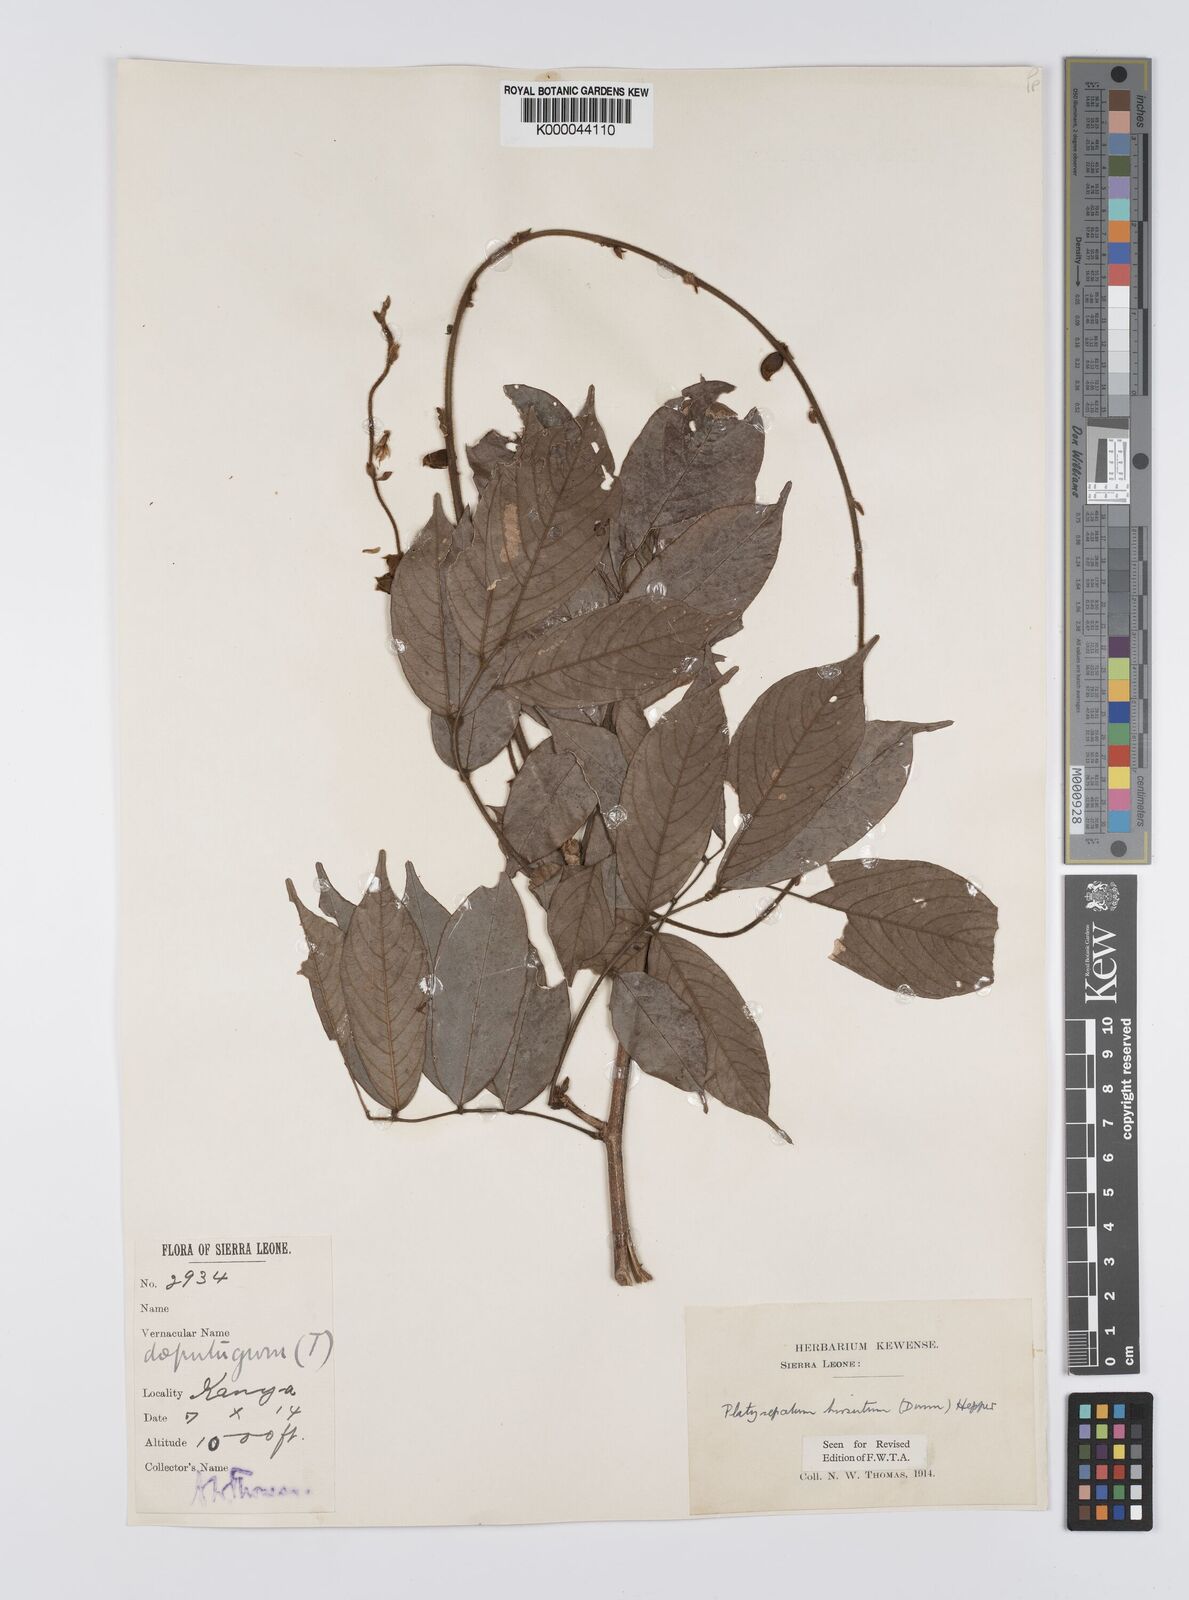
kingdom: Plantae
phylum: Tracheophyta
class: Magnoliopsida
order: Fabales
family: Fabaceae
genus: Platysepalum
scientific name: Platysepalum hirsutum
